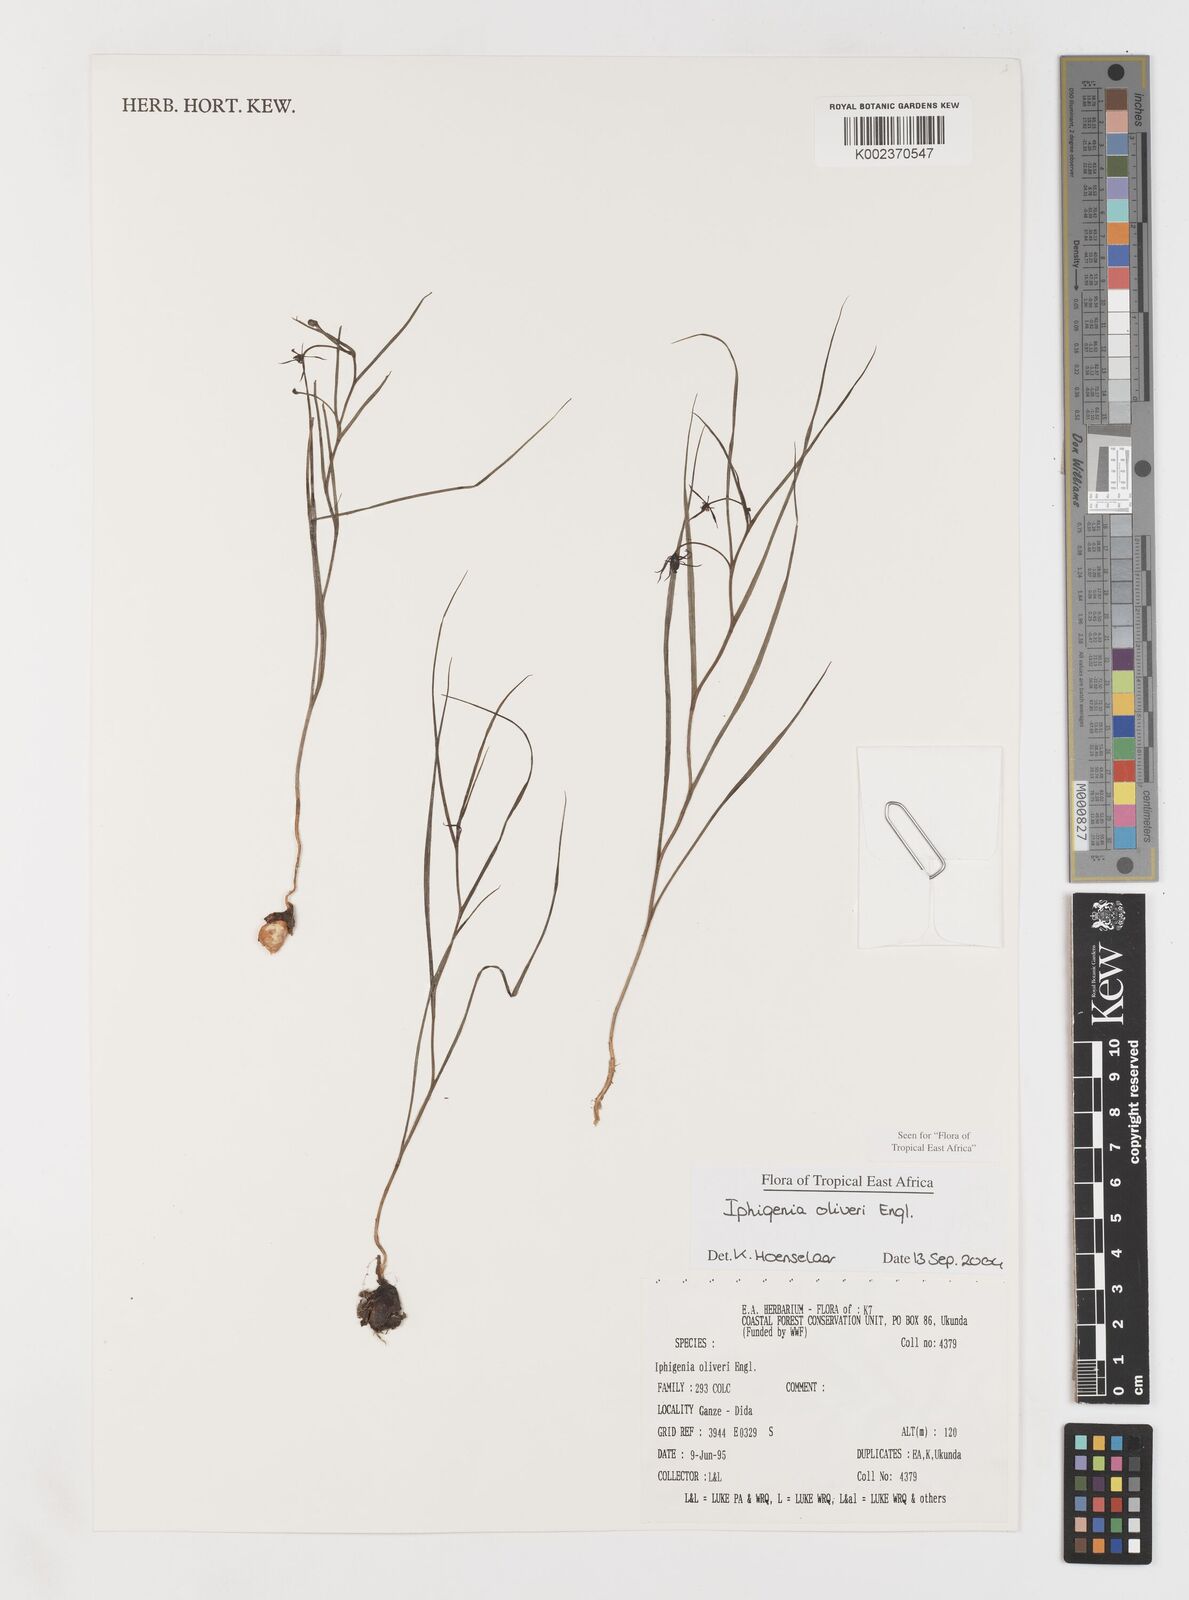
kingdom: Plantae
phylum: Tracheophyta
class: Liliopsida
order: Liliales
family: Colchicaceae
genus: Iphigenia
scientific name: Iphigenia oliveri
